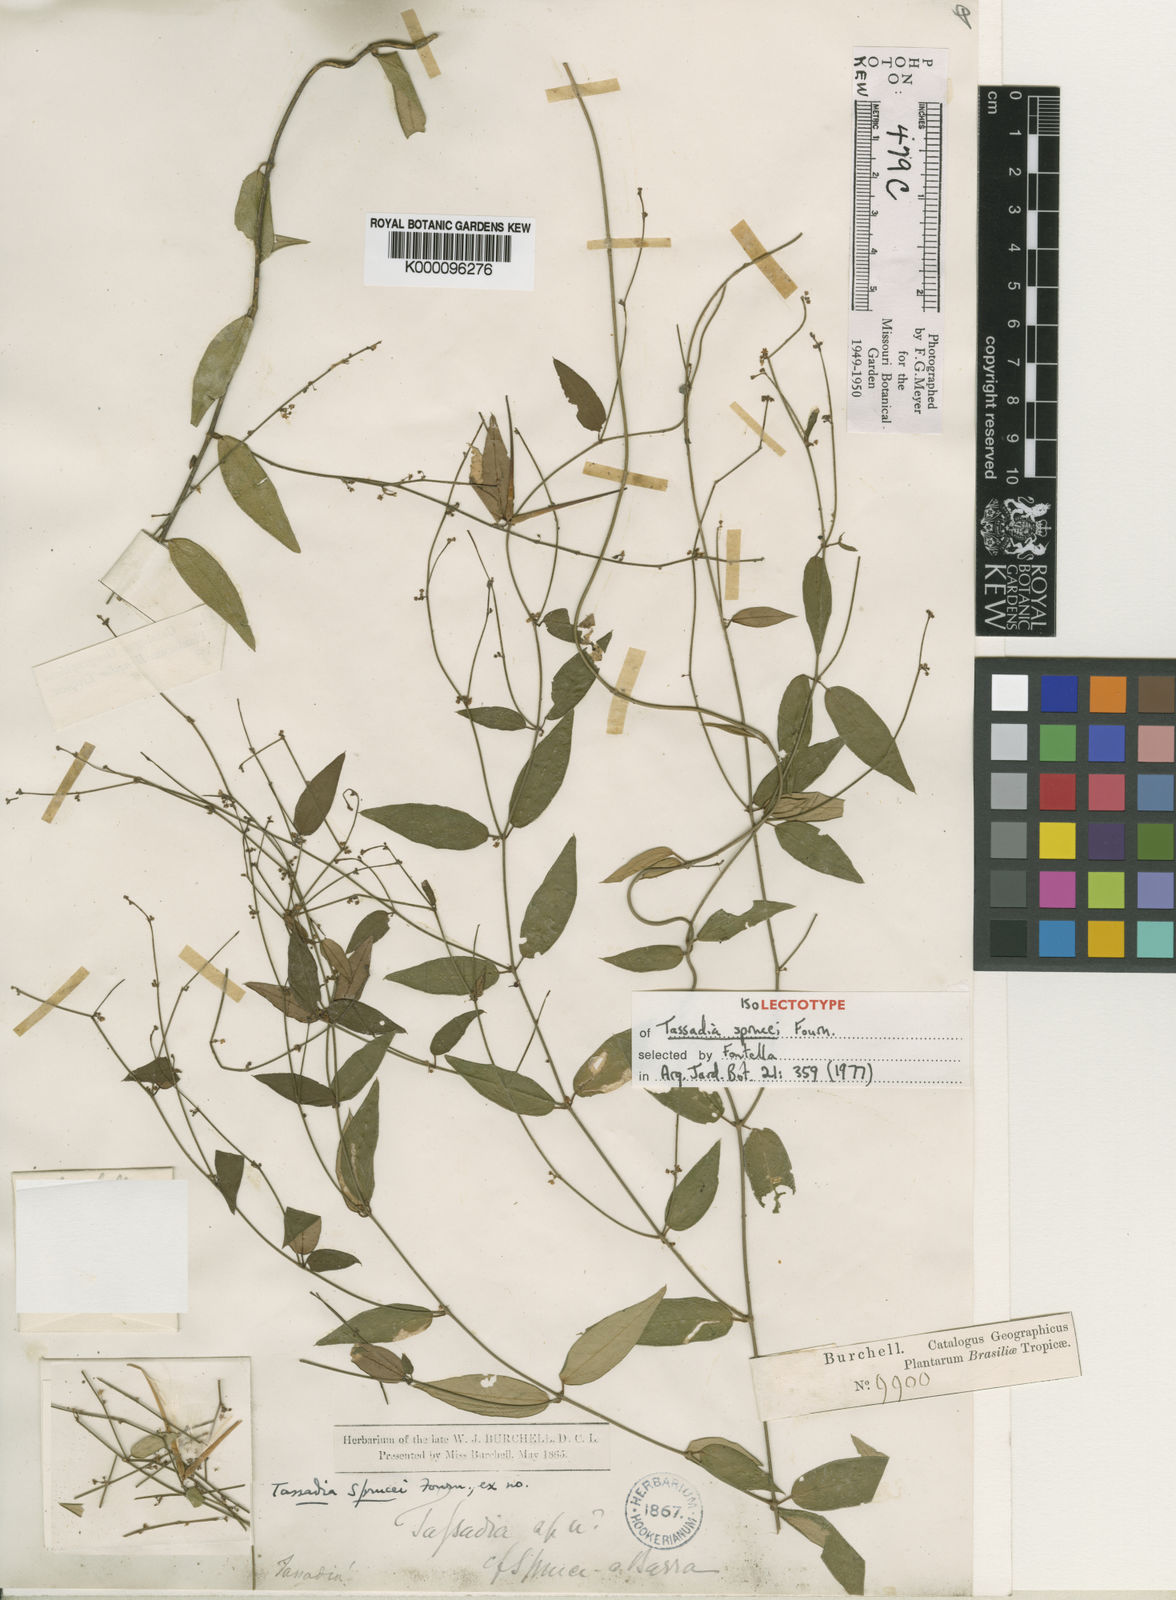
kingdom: Plantae
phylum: Tracheophyta
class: Magnoliopsida
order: Gentianales
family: Apocynaceae
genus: Tassadia
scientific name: Tassadia propinqua
